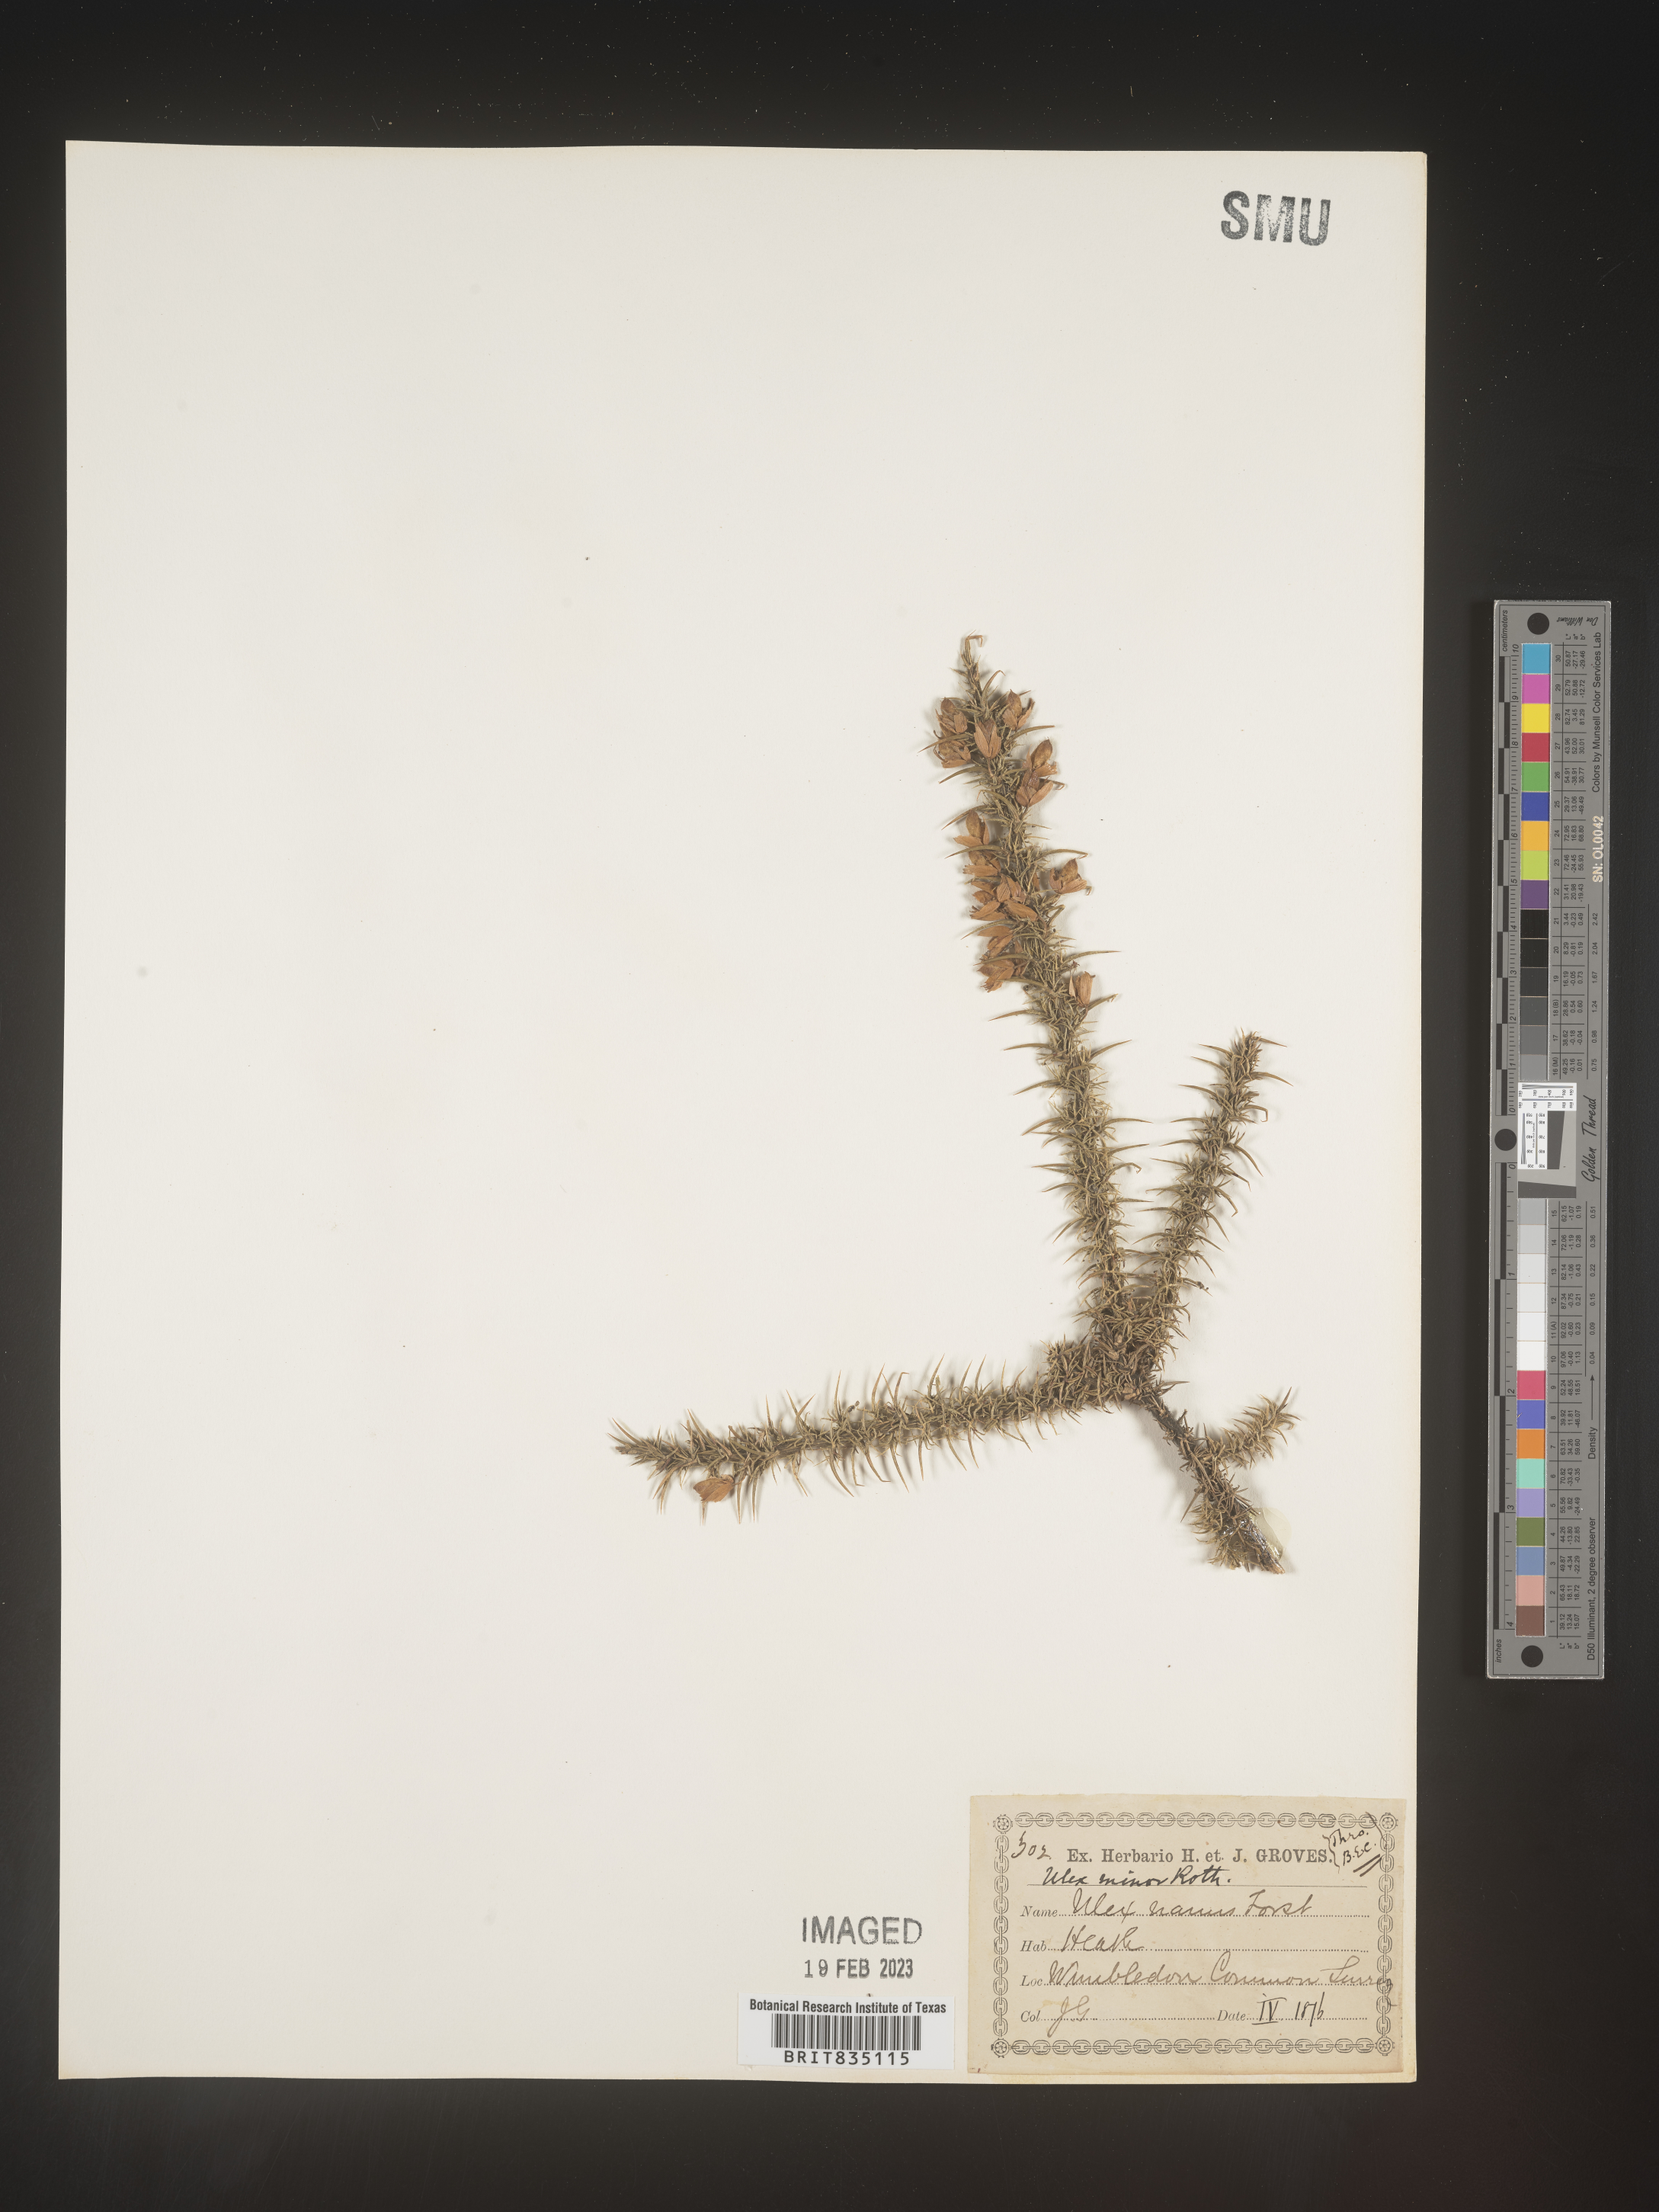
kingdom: Plantae
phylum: Tracheophyta
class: Magnoliopsida
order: Fabales
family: Fabaceae
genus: Ulex
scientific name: Ulex
